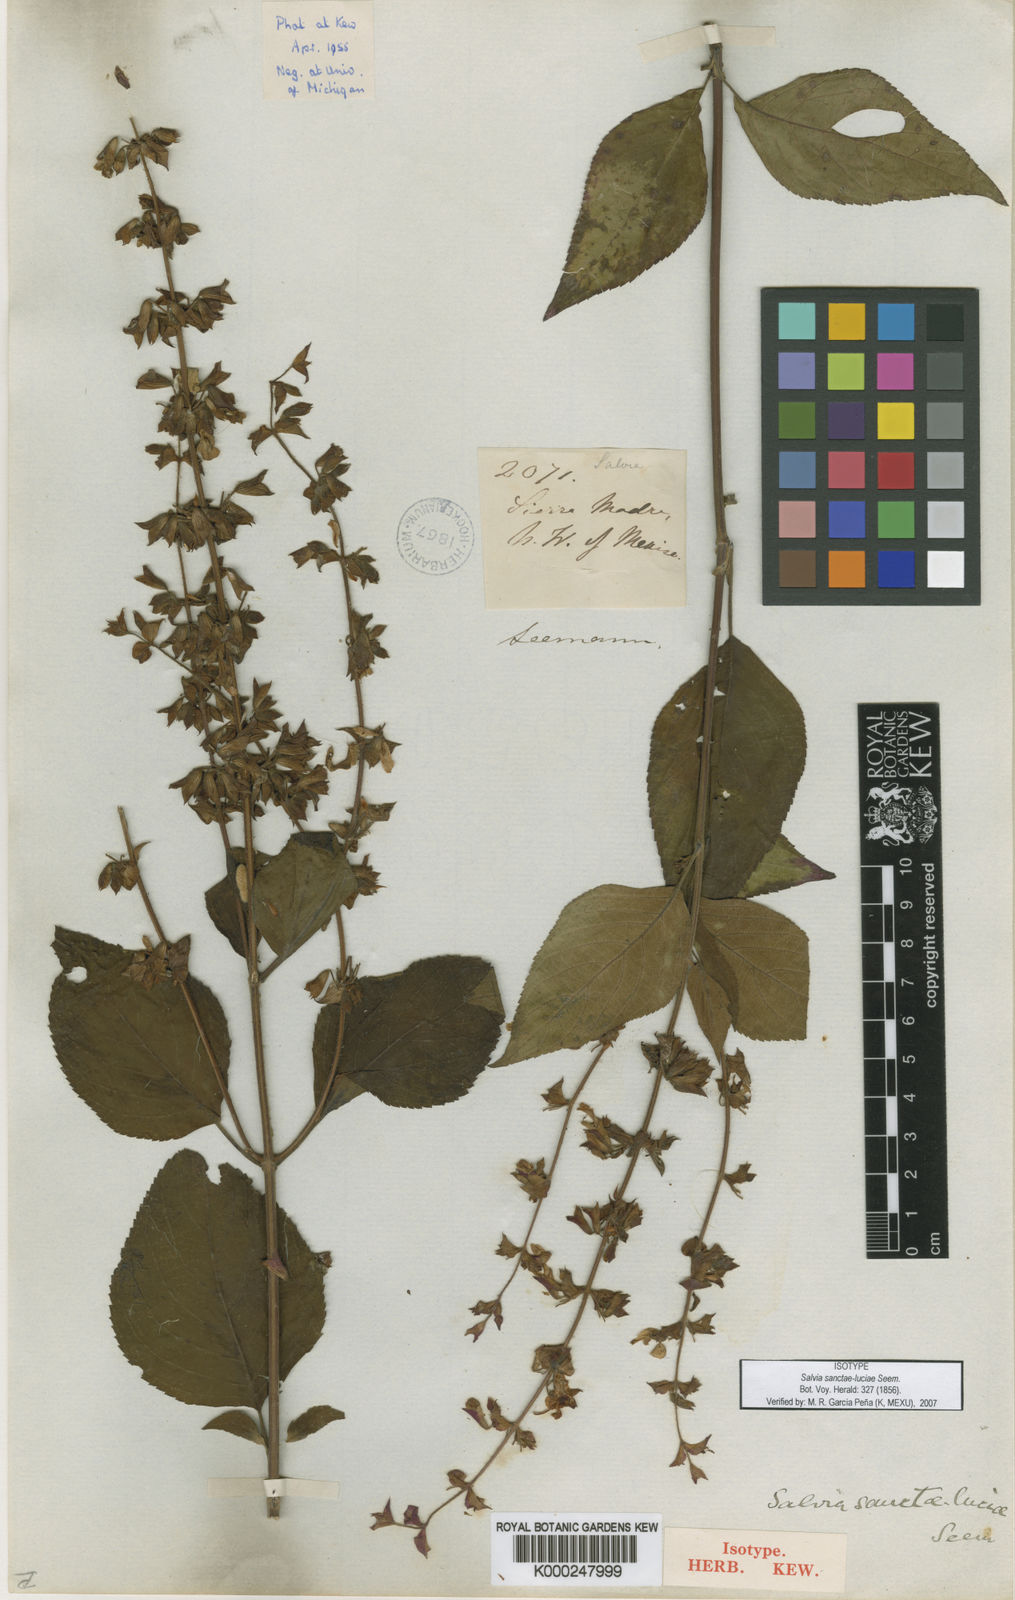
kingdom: Plantae
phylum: Tracheophyta
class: Magnoliopsida
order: Lamiales
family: Lamiaceae
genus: Salvia
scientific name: Salvia sanctae-luciae
